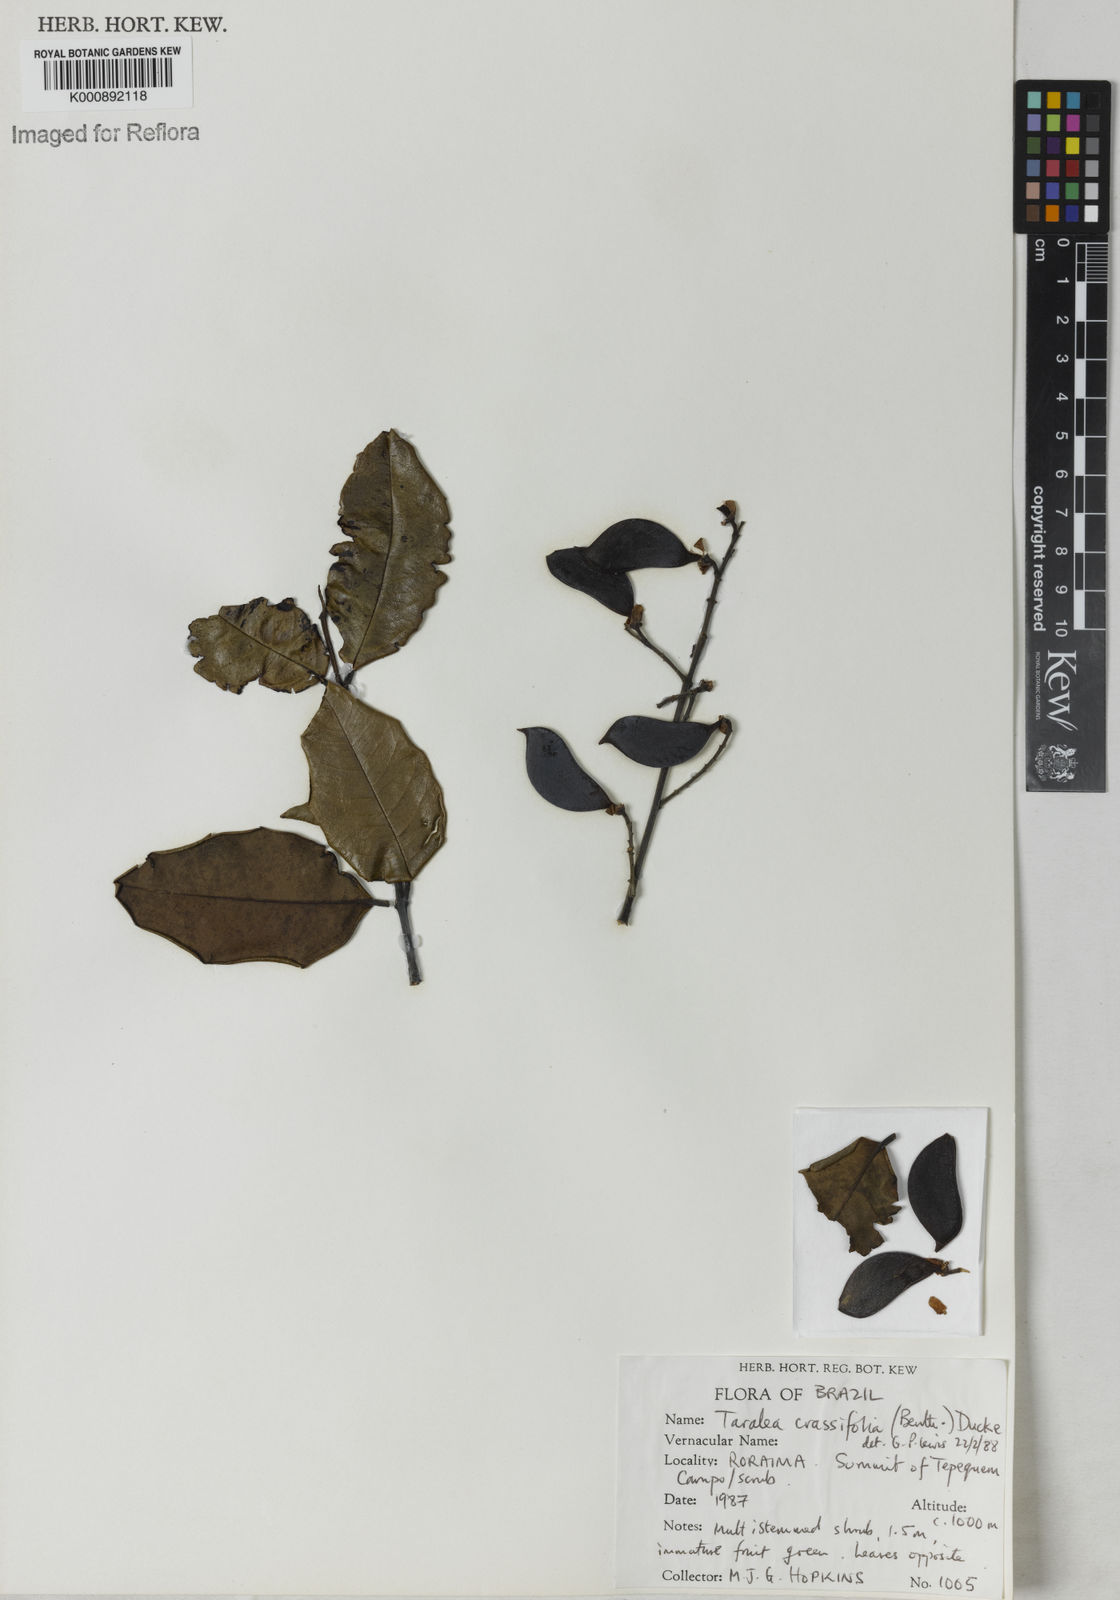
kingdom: Plantae
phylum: Tracheophyta
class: Magnoliopsida
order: Fabales
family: Fabaceae
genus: Taralea
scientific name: Taralea crassifolia
